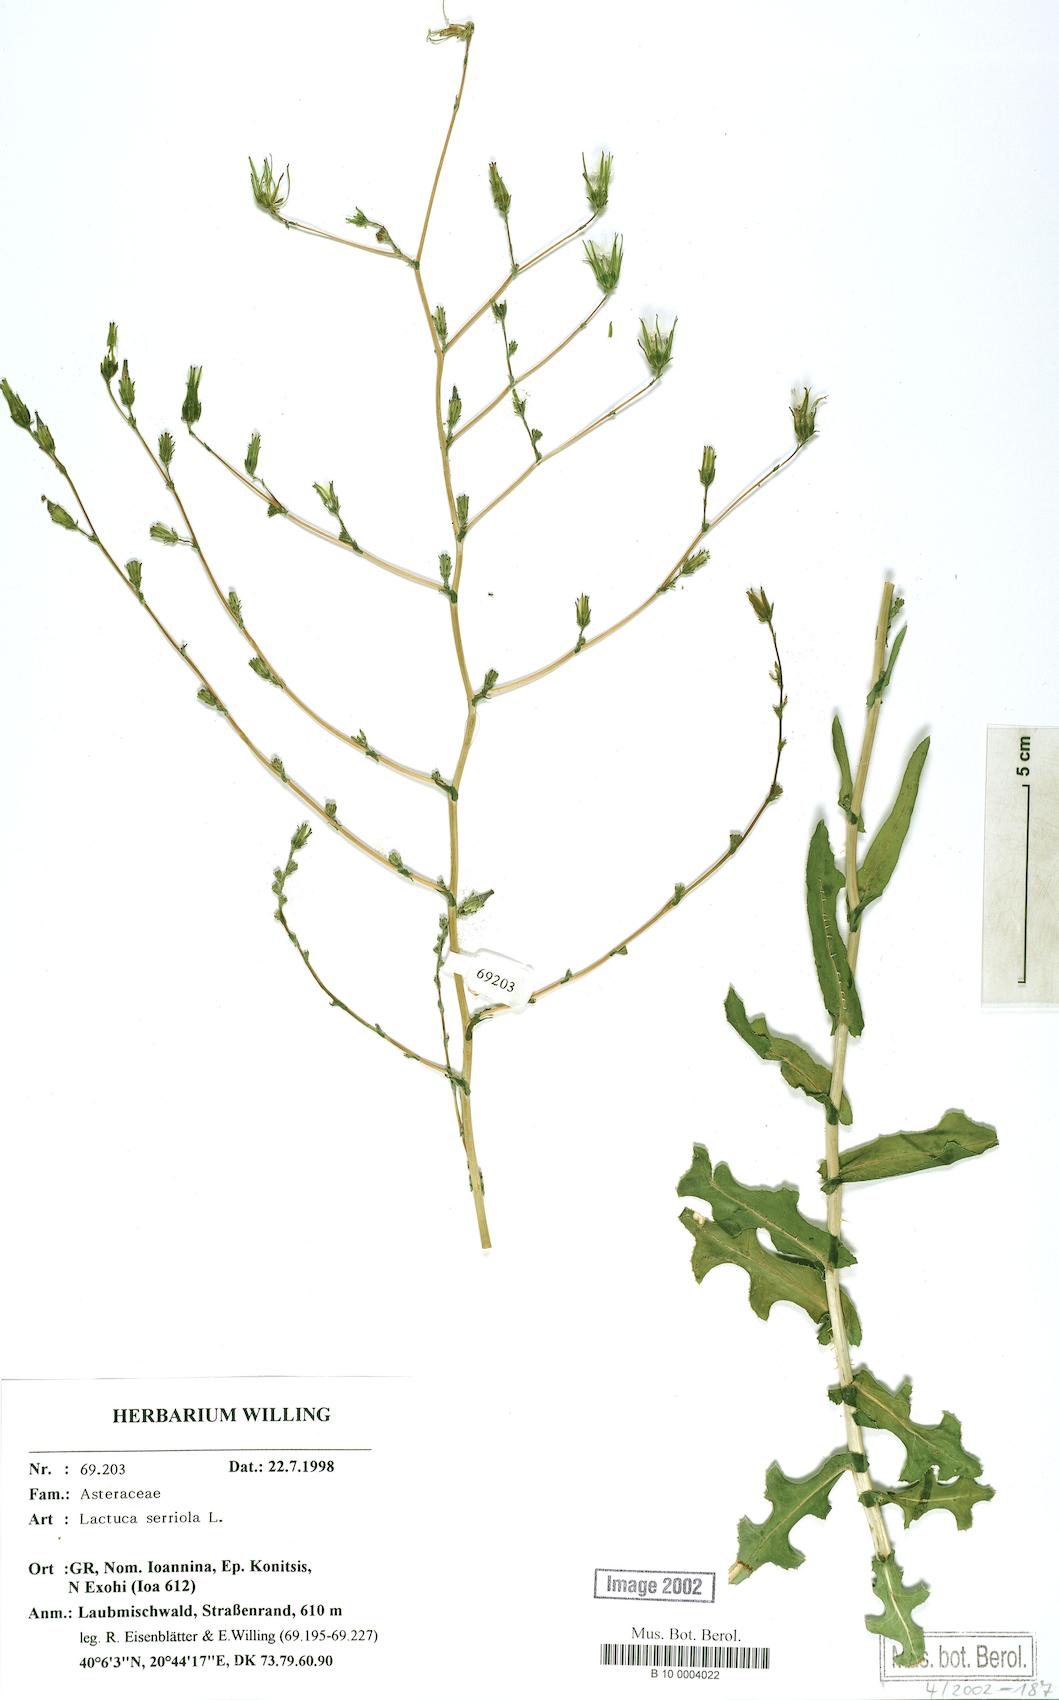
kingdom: Plantae
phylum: Tracheophyta
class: Magnoliopsida
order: Asterales
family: Asteraceae
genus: Lactuca
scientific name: Lactuca serriola
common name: Prickly lettuce
